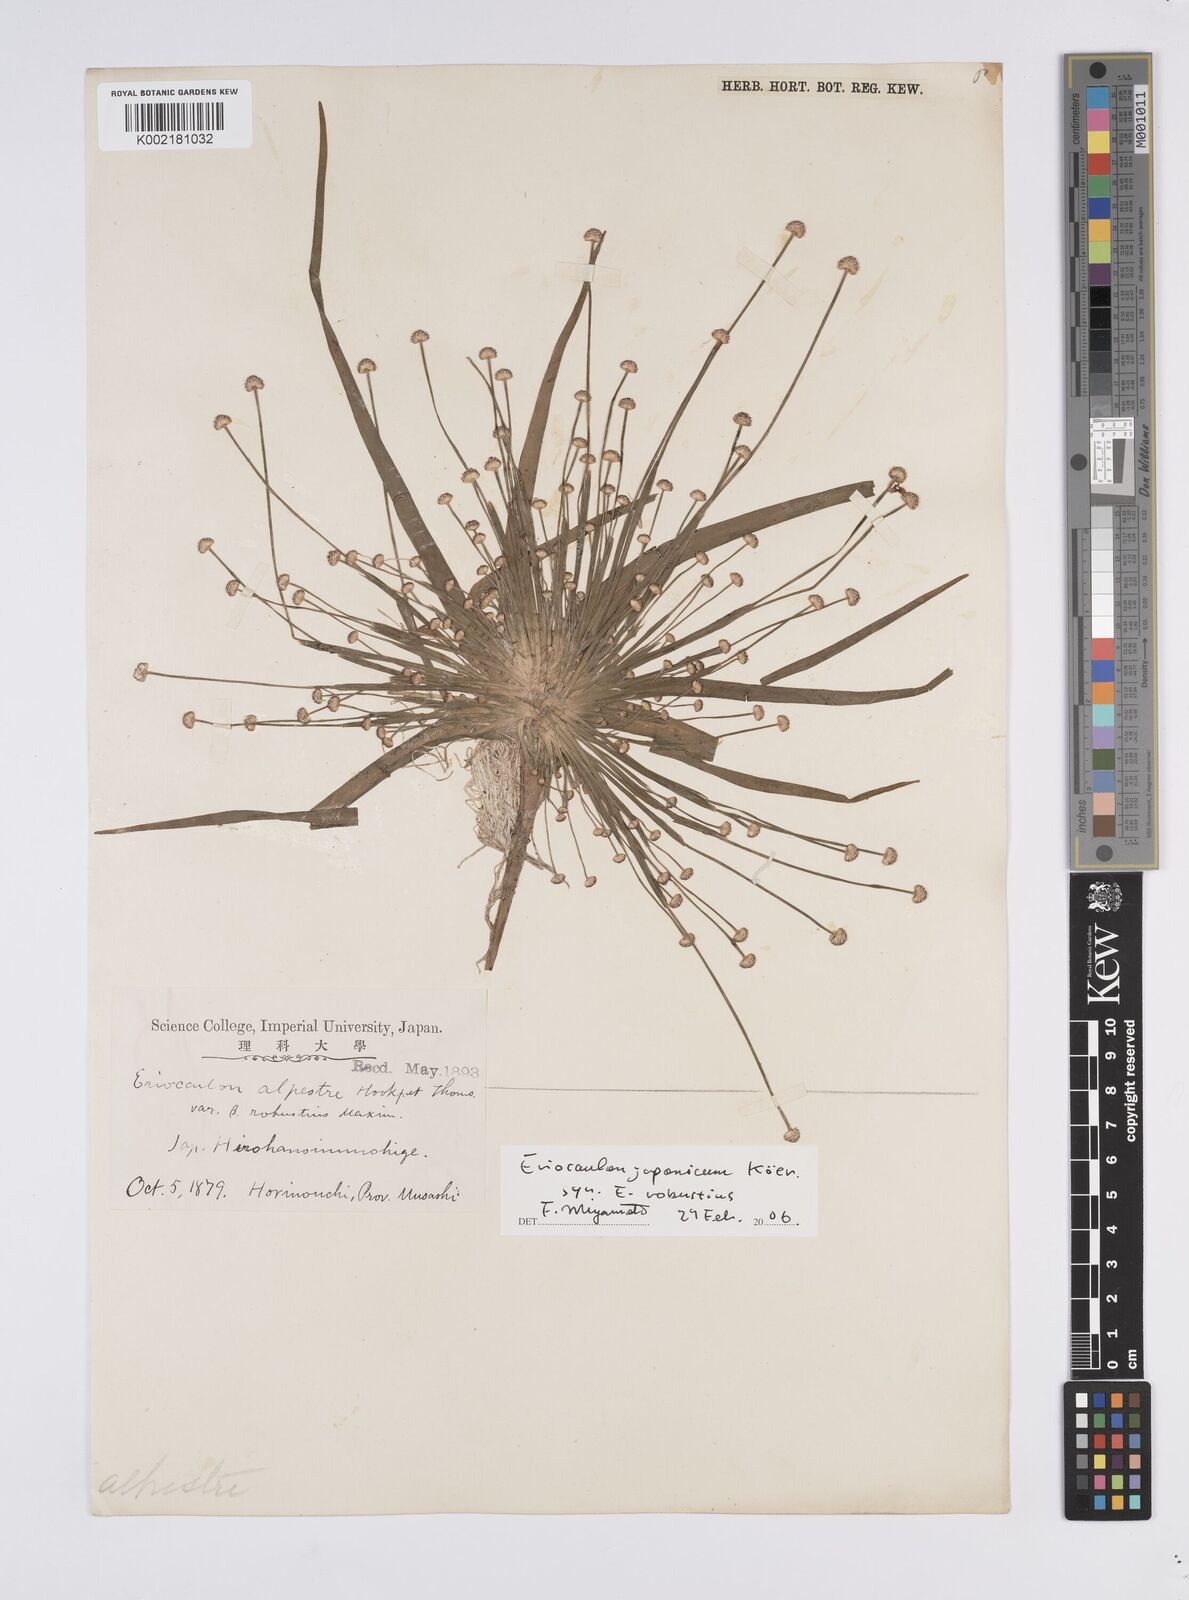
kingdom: Plantae
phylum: Tracheophyta
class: Liliopsida
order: Poales
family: Eriocaulaceae
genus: Eriocaulon
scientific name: Eriocaulon alpestre
